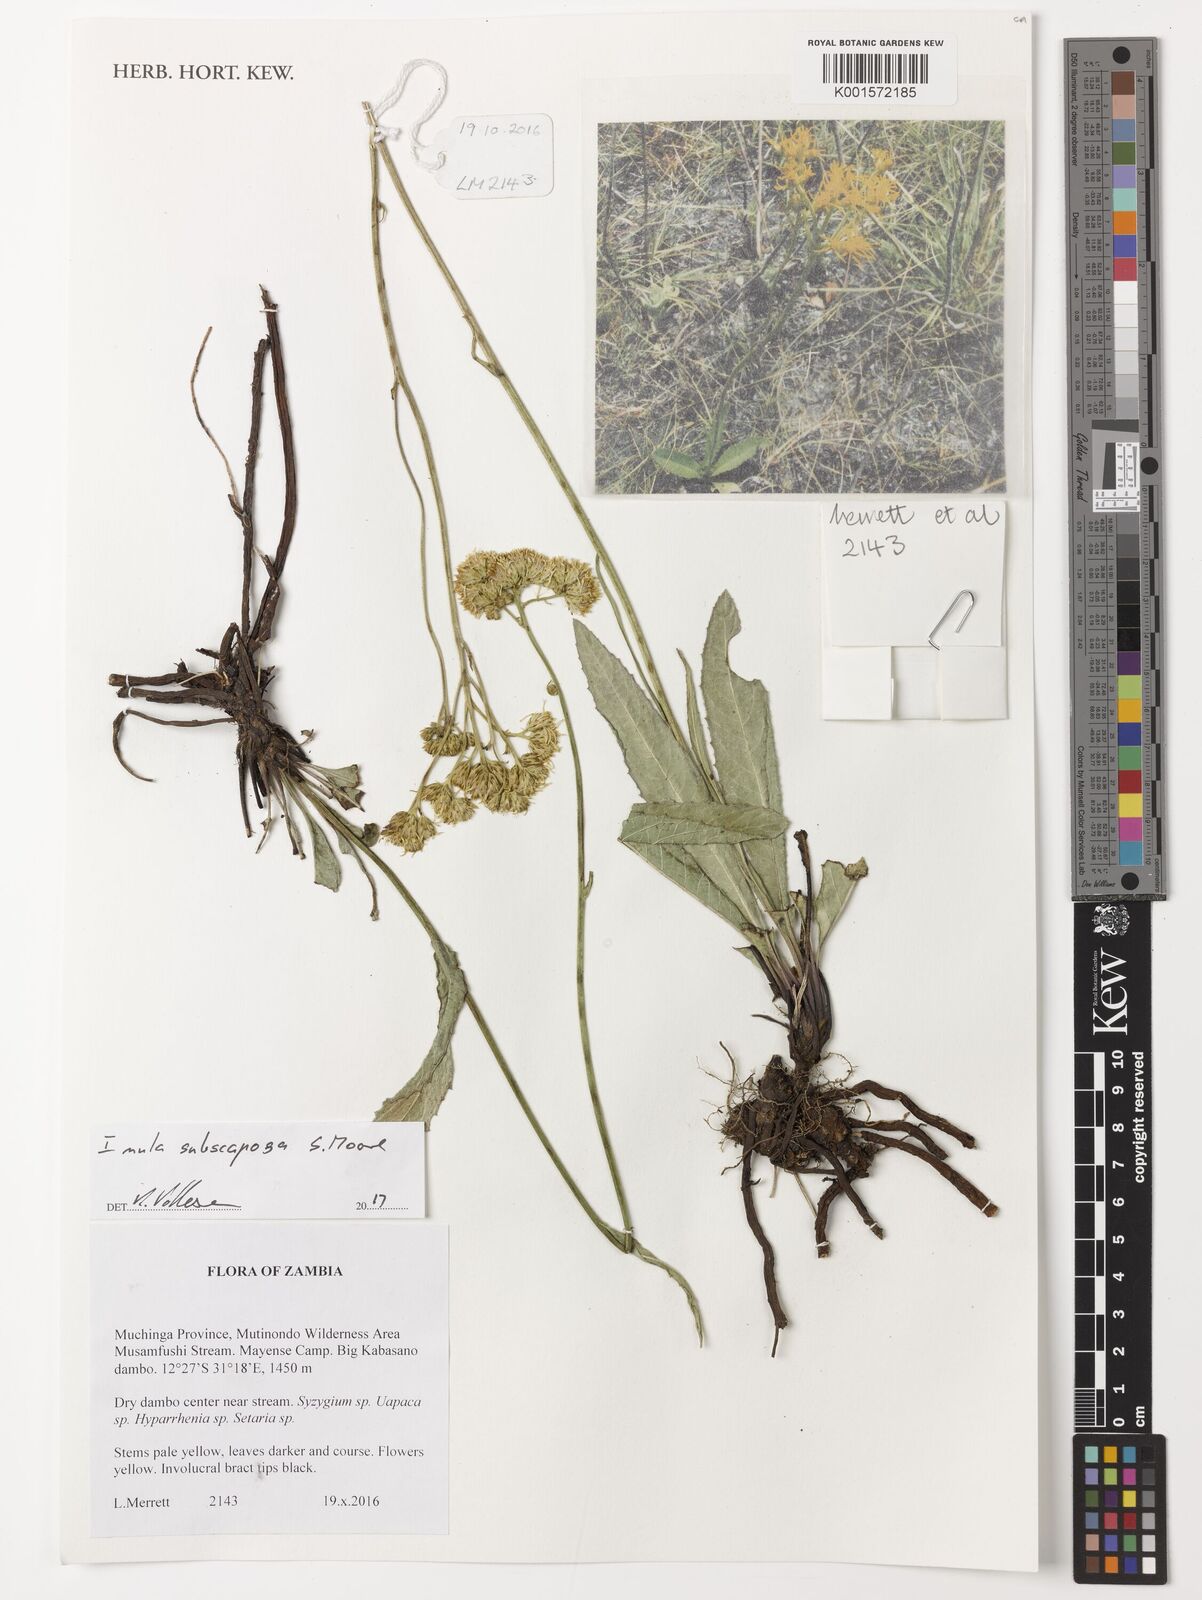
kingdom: Plantae
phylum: Tracheophyta
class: Magnoliopsida
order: Asterales
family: Asteraceae
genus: Monactinocephalus
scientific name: Monactinocephalus paniculatus
